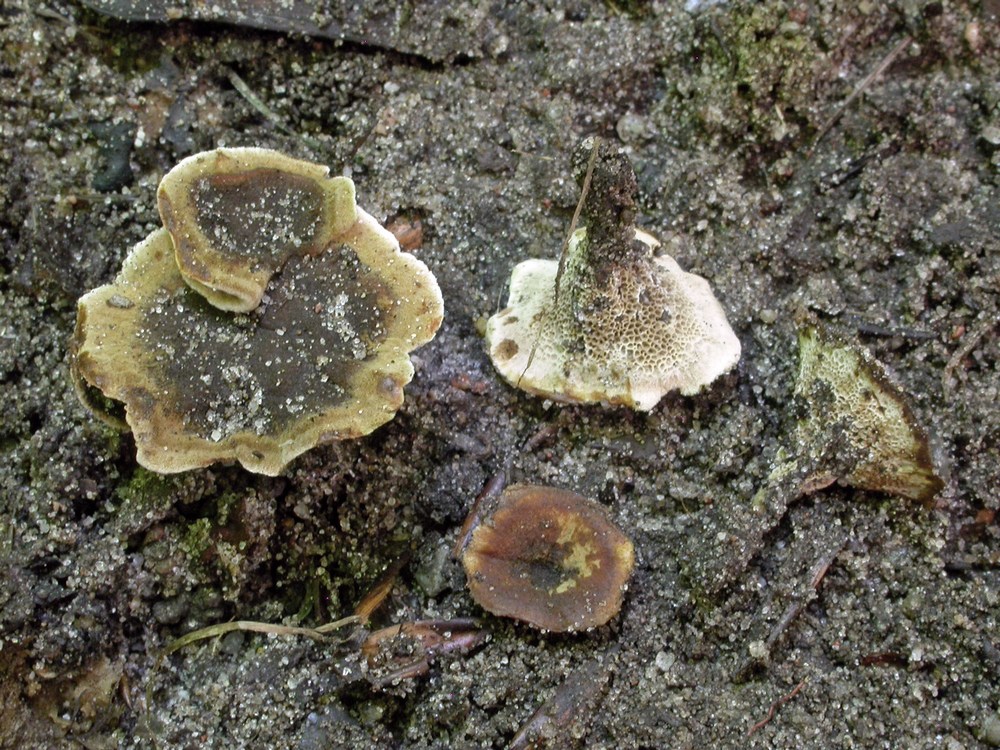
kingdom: Fungi
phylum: Basidiomycota
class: Agaricomycetes
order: Hymenochaetales
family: Hymenochaetaceae
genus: Coltricia
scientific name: Coltricia confluens
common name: park-sandporesvamp
